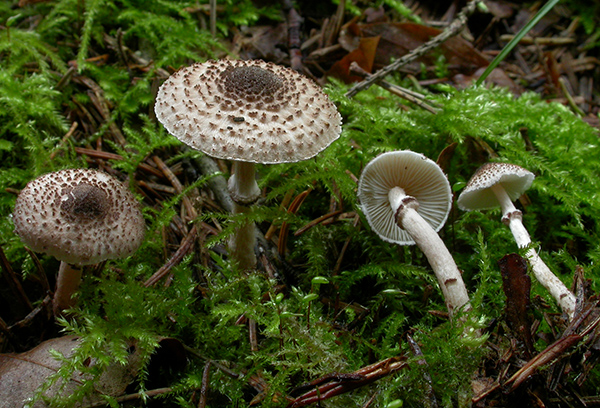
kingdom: Fungi
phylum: Basidiomycota
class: Agaricomycetes
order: Agaricales
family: Agaricaceae
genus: Lepiota
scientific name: Lepiota felina
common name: sortskællet parasolhat
